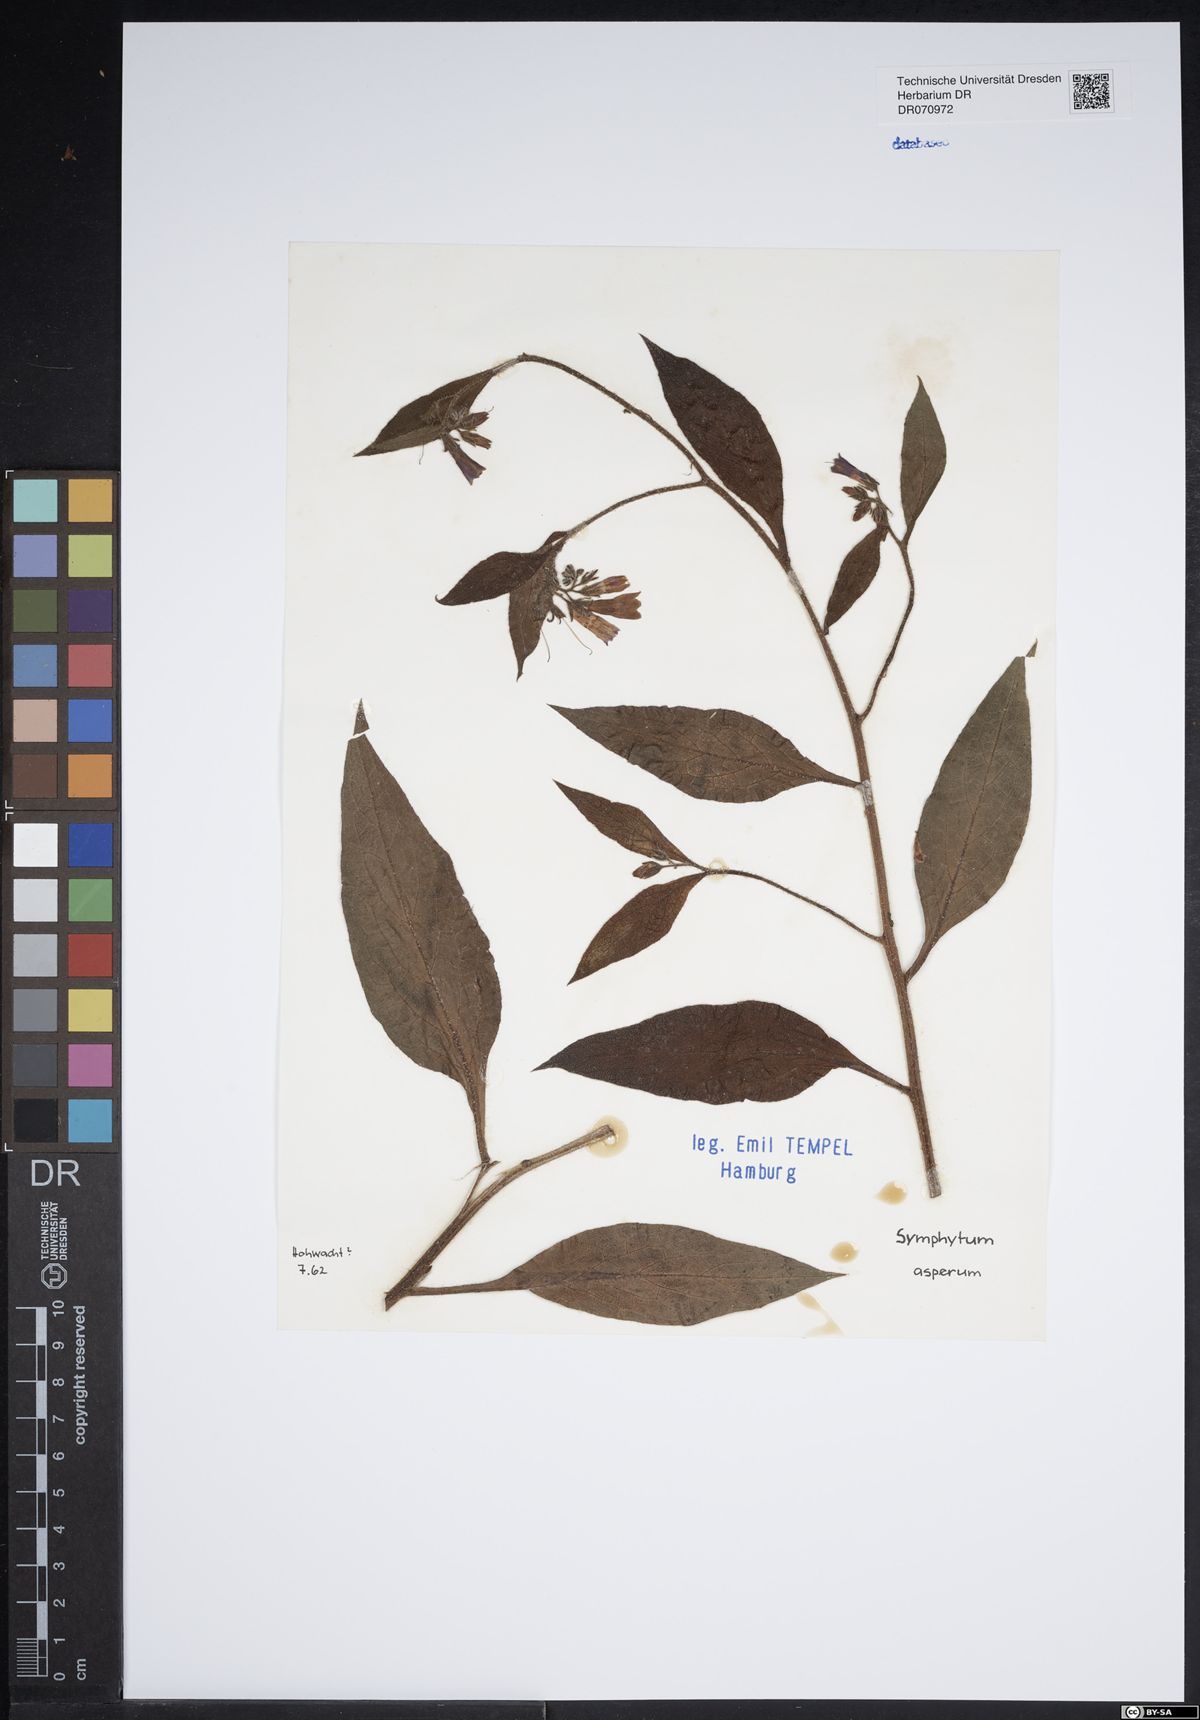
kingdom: Plantae
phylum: Tracheophyta
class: Magnoliopsida
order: Boraginales
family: Boraginaceae
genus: Symphytum
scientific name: Symphytum asperum
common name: Prickly comfrey
